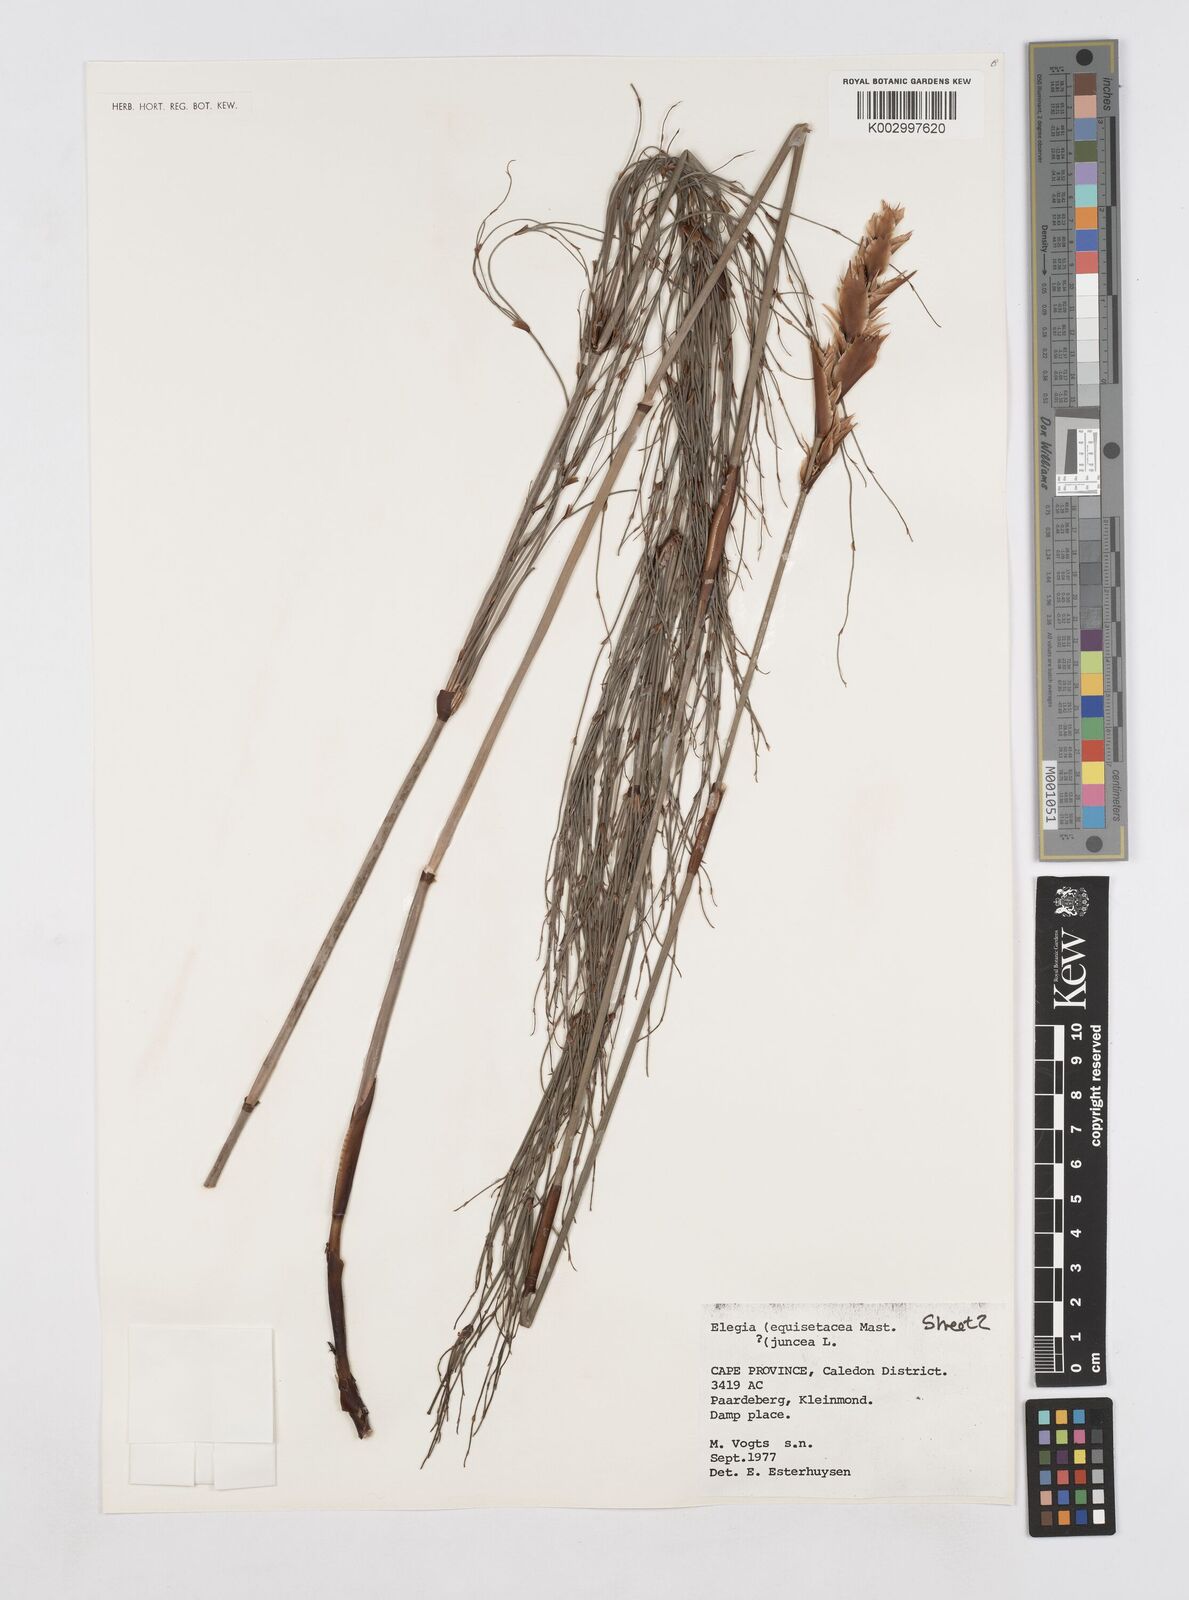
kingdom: Plantae
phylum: Tracheophyta
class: Liliopsida
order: Poales
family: Restionaceae
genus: Elegia
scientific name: Elegia equisetacea
